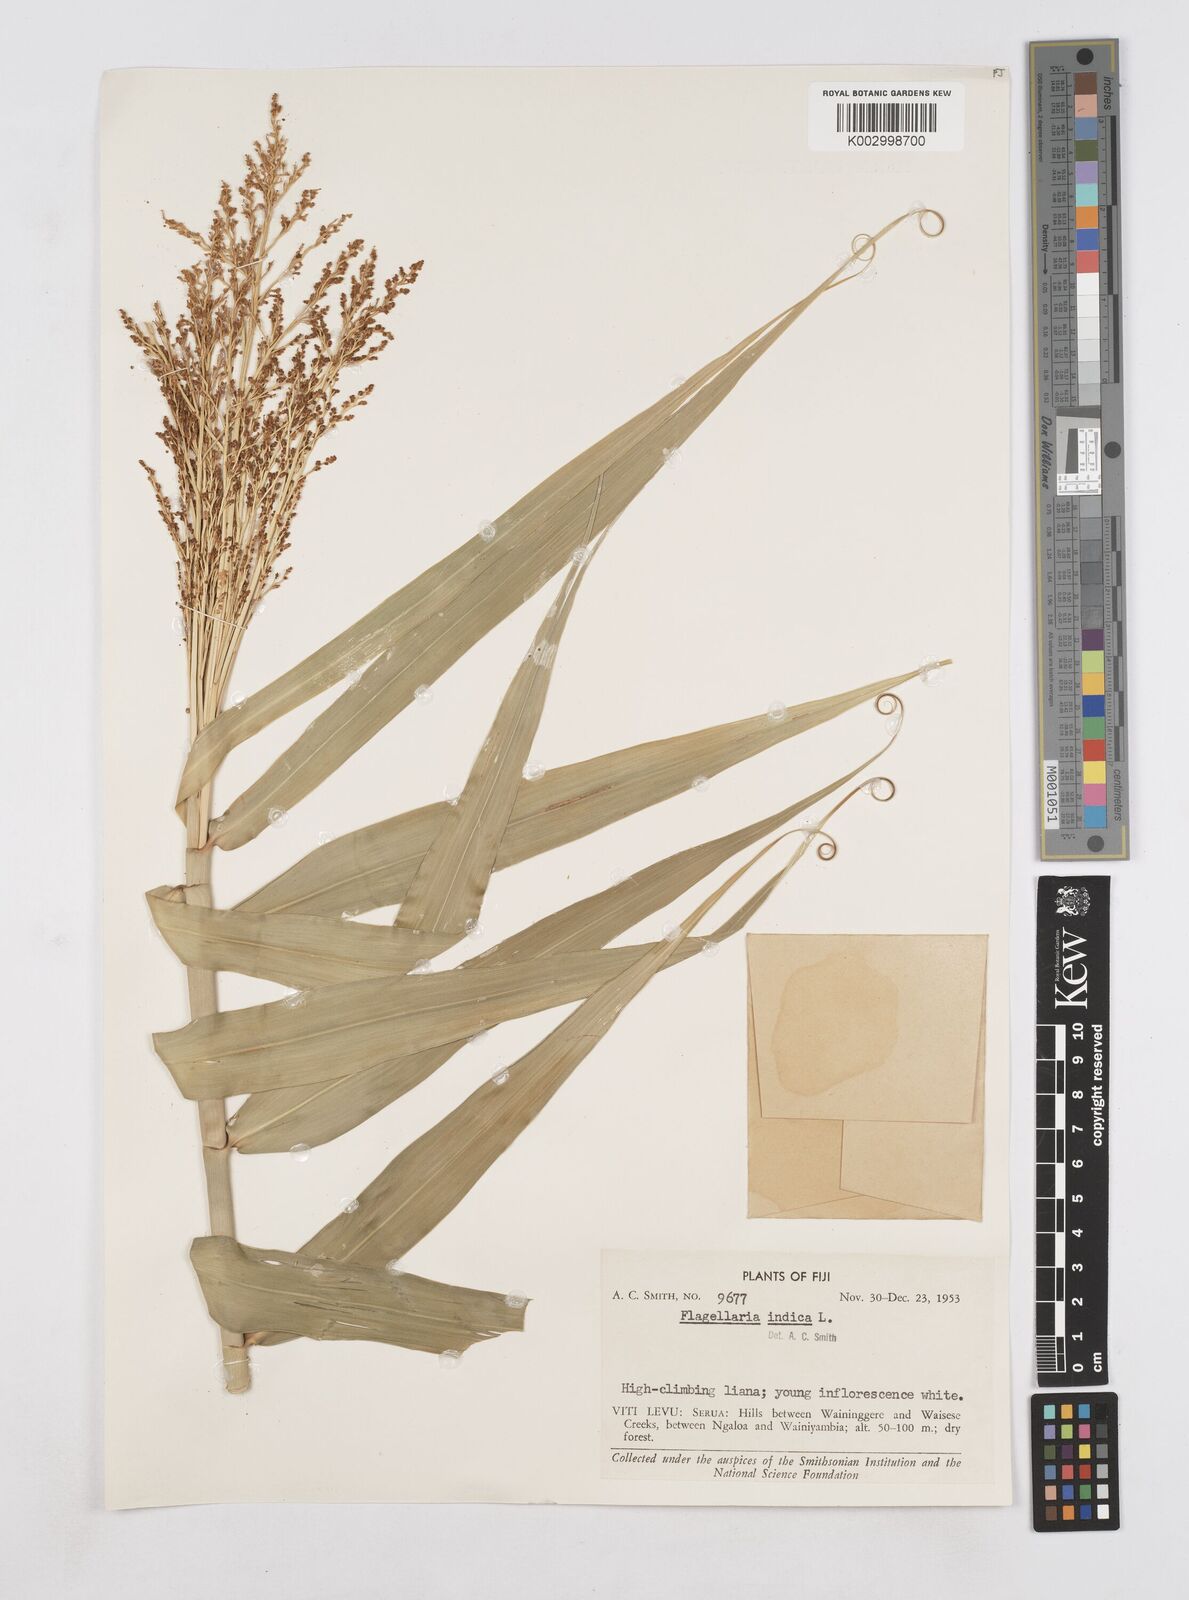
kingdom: Plantae
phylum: Tracheophyta
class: Liliopsida
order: Poales
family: Flagellariaceae
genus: Flagellaria
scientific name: Flagellaria indica
